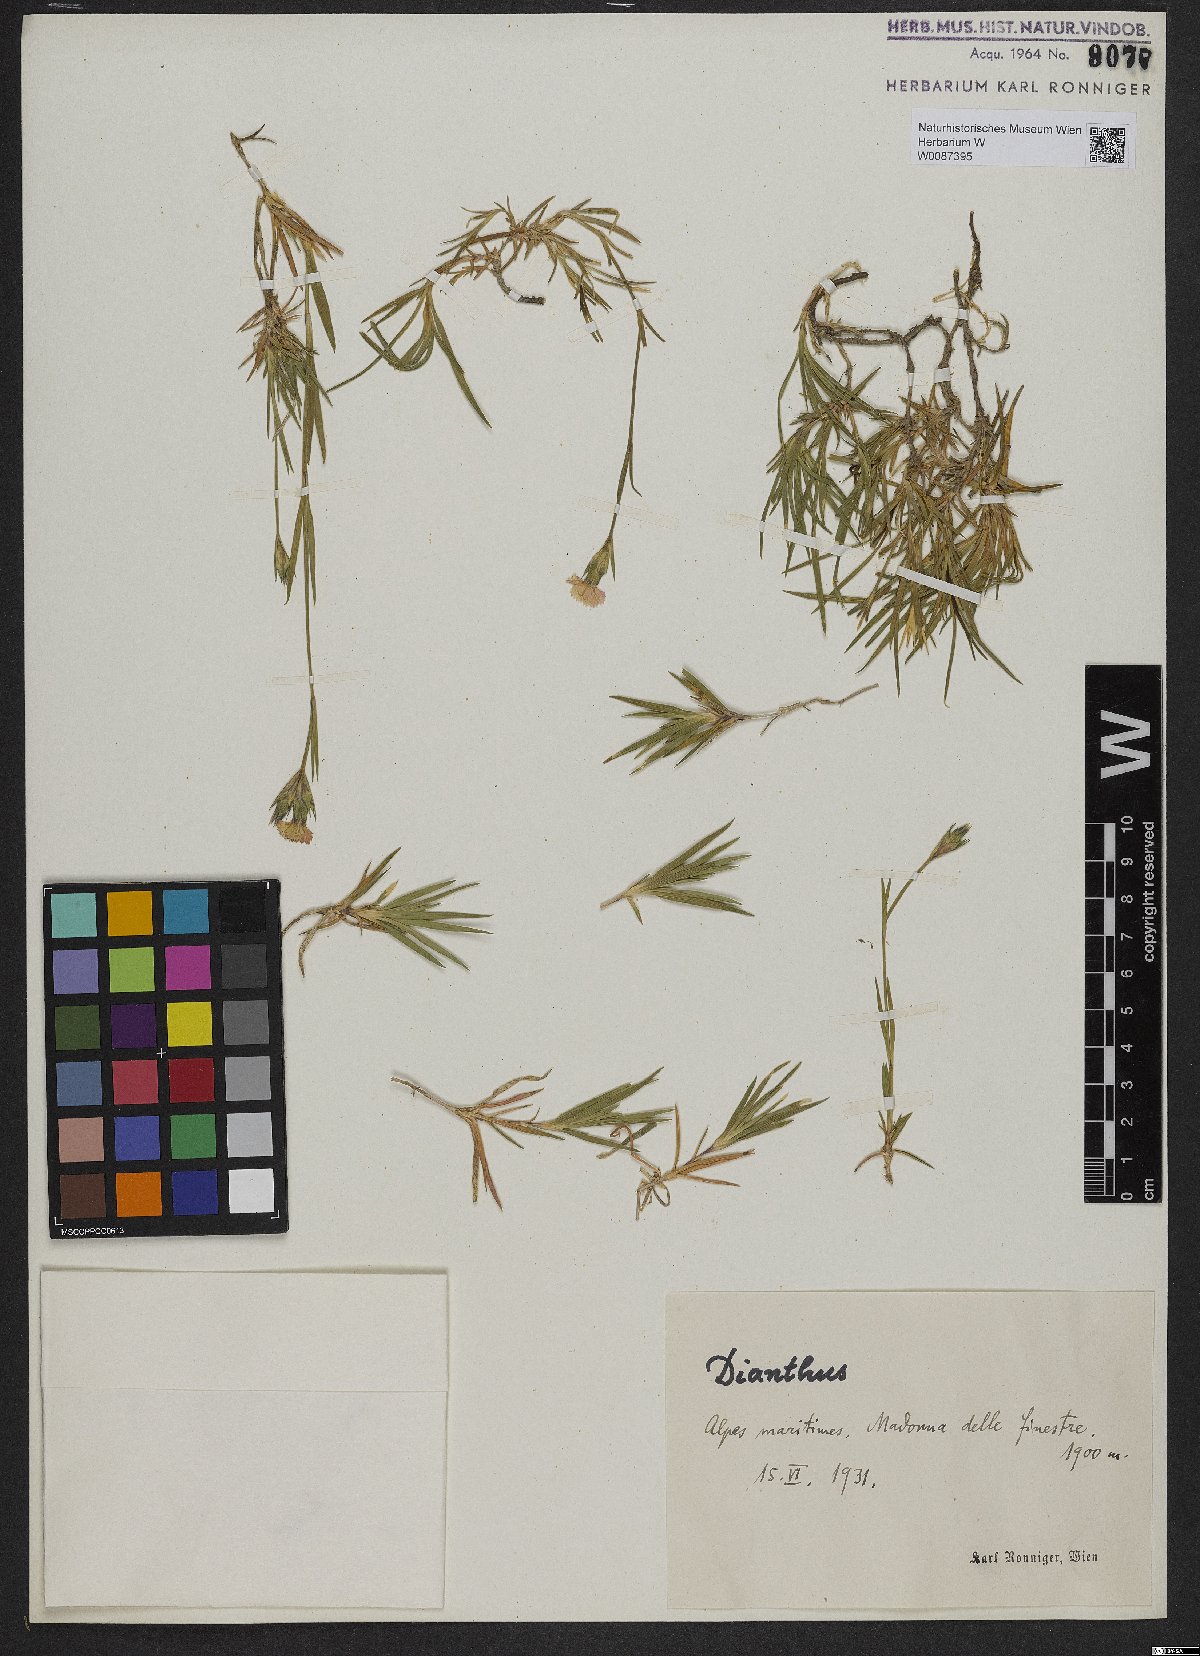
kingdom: Plantae
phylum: Tracheophyta
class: Magnoliopsida
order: Caryophyllales
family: Caryophyllaceae
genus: Dianthus
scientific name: Dianthus
